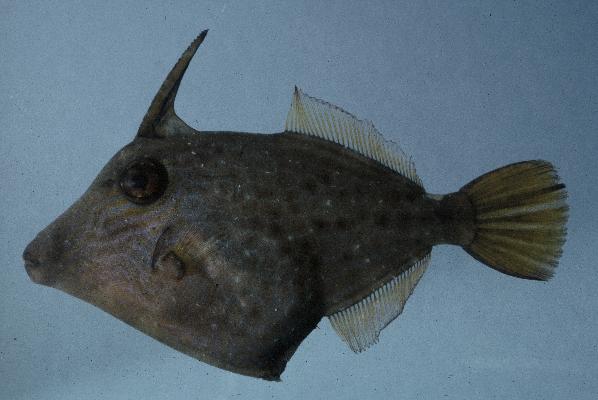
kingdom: Animalia
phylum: Chordata
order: Tetraodontiformes
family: Monacanthidae
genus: Cantherhines
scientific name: Cantherhines pardalis
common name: Honeycomb filefish
